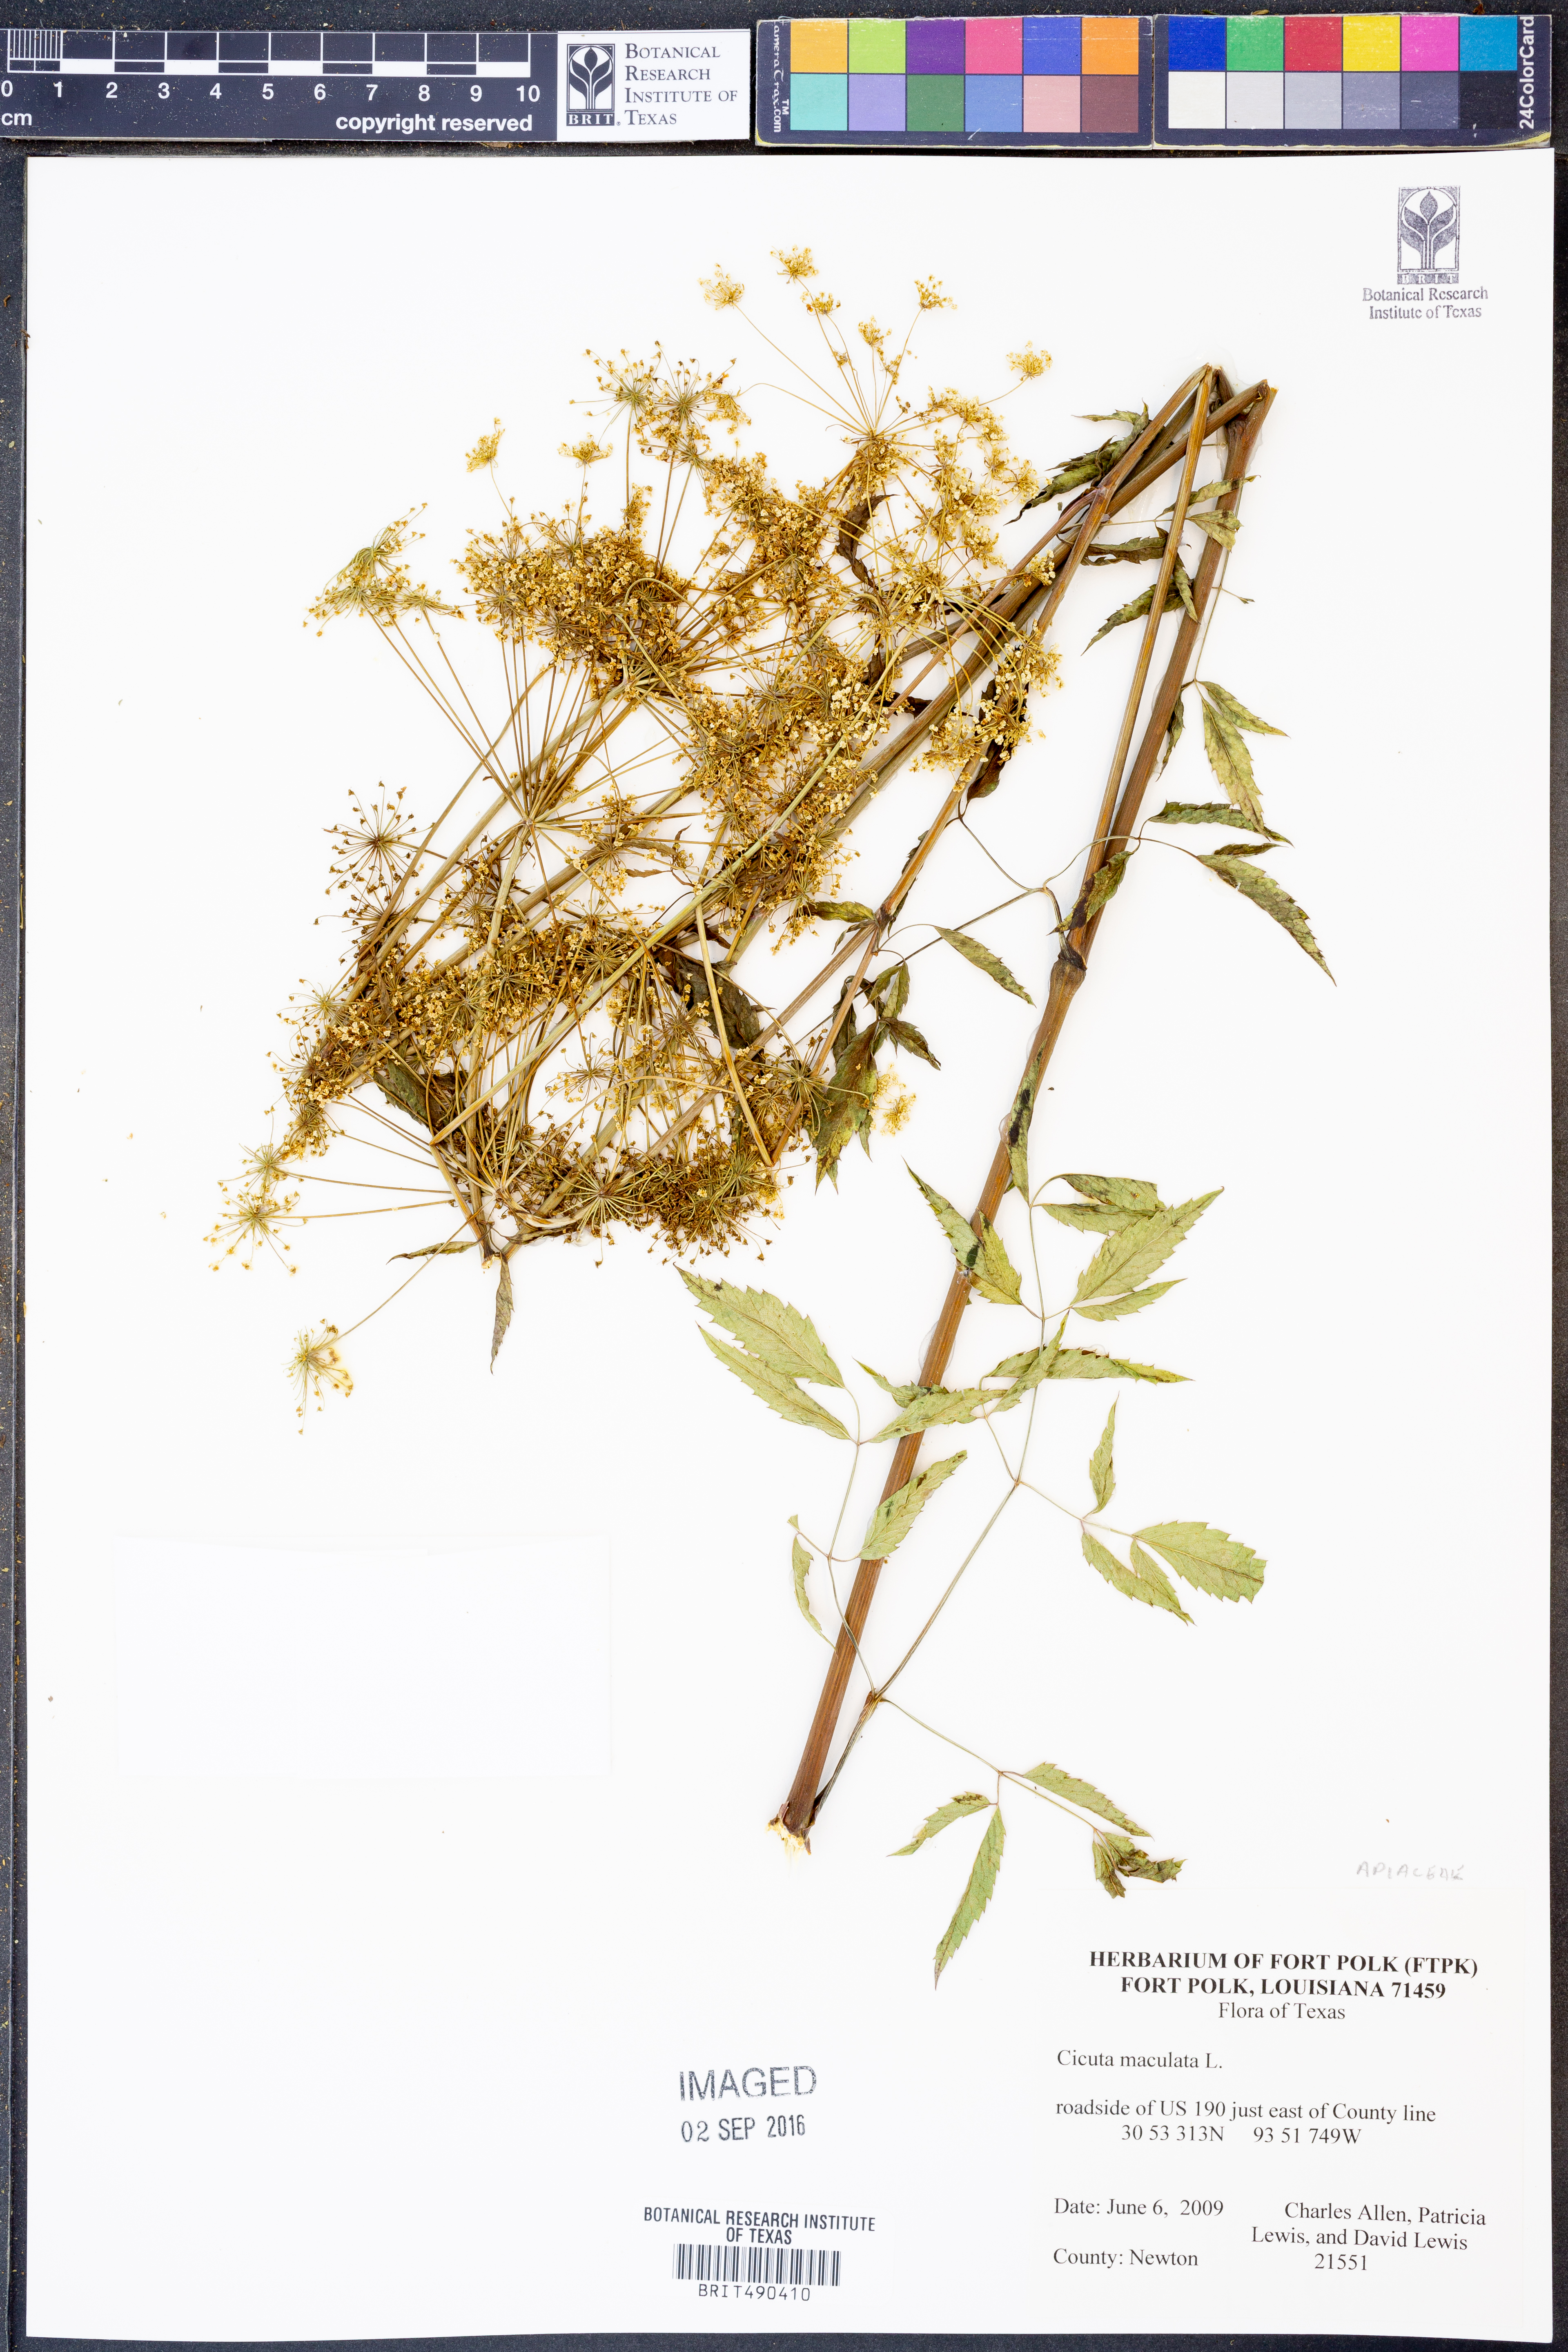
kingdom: Plantae
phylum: Tracheophyta
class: Magnoliopsida
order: Apiales
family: Apiaceae
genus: Cicuta
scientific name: Cicuta maculata
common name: Spotted cowbane
